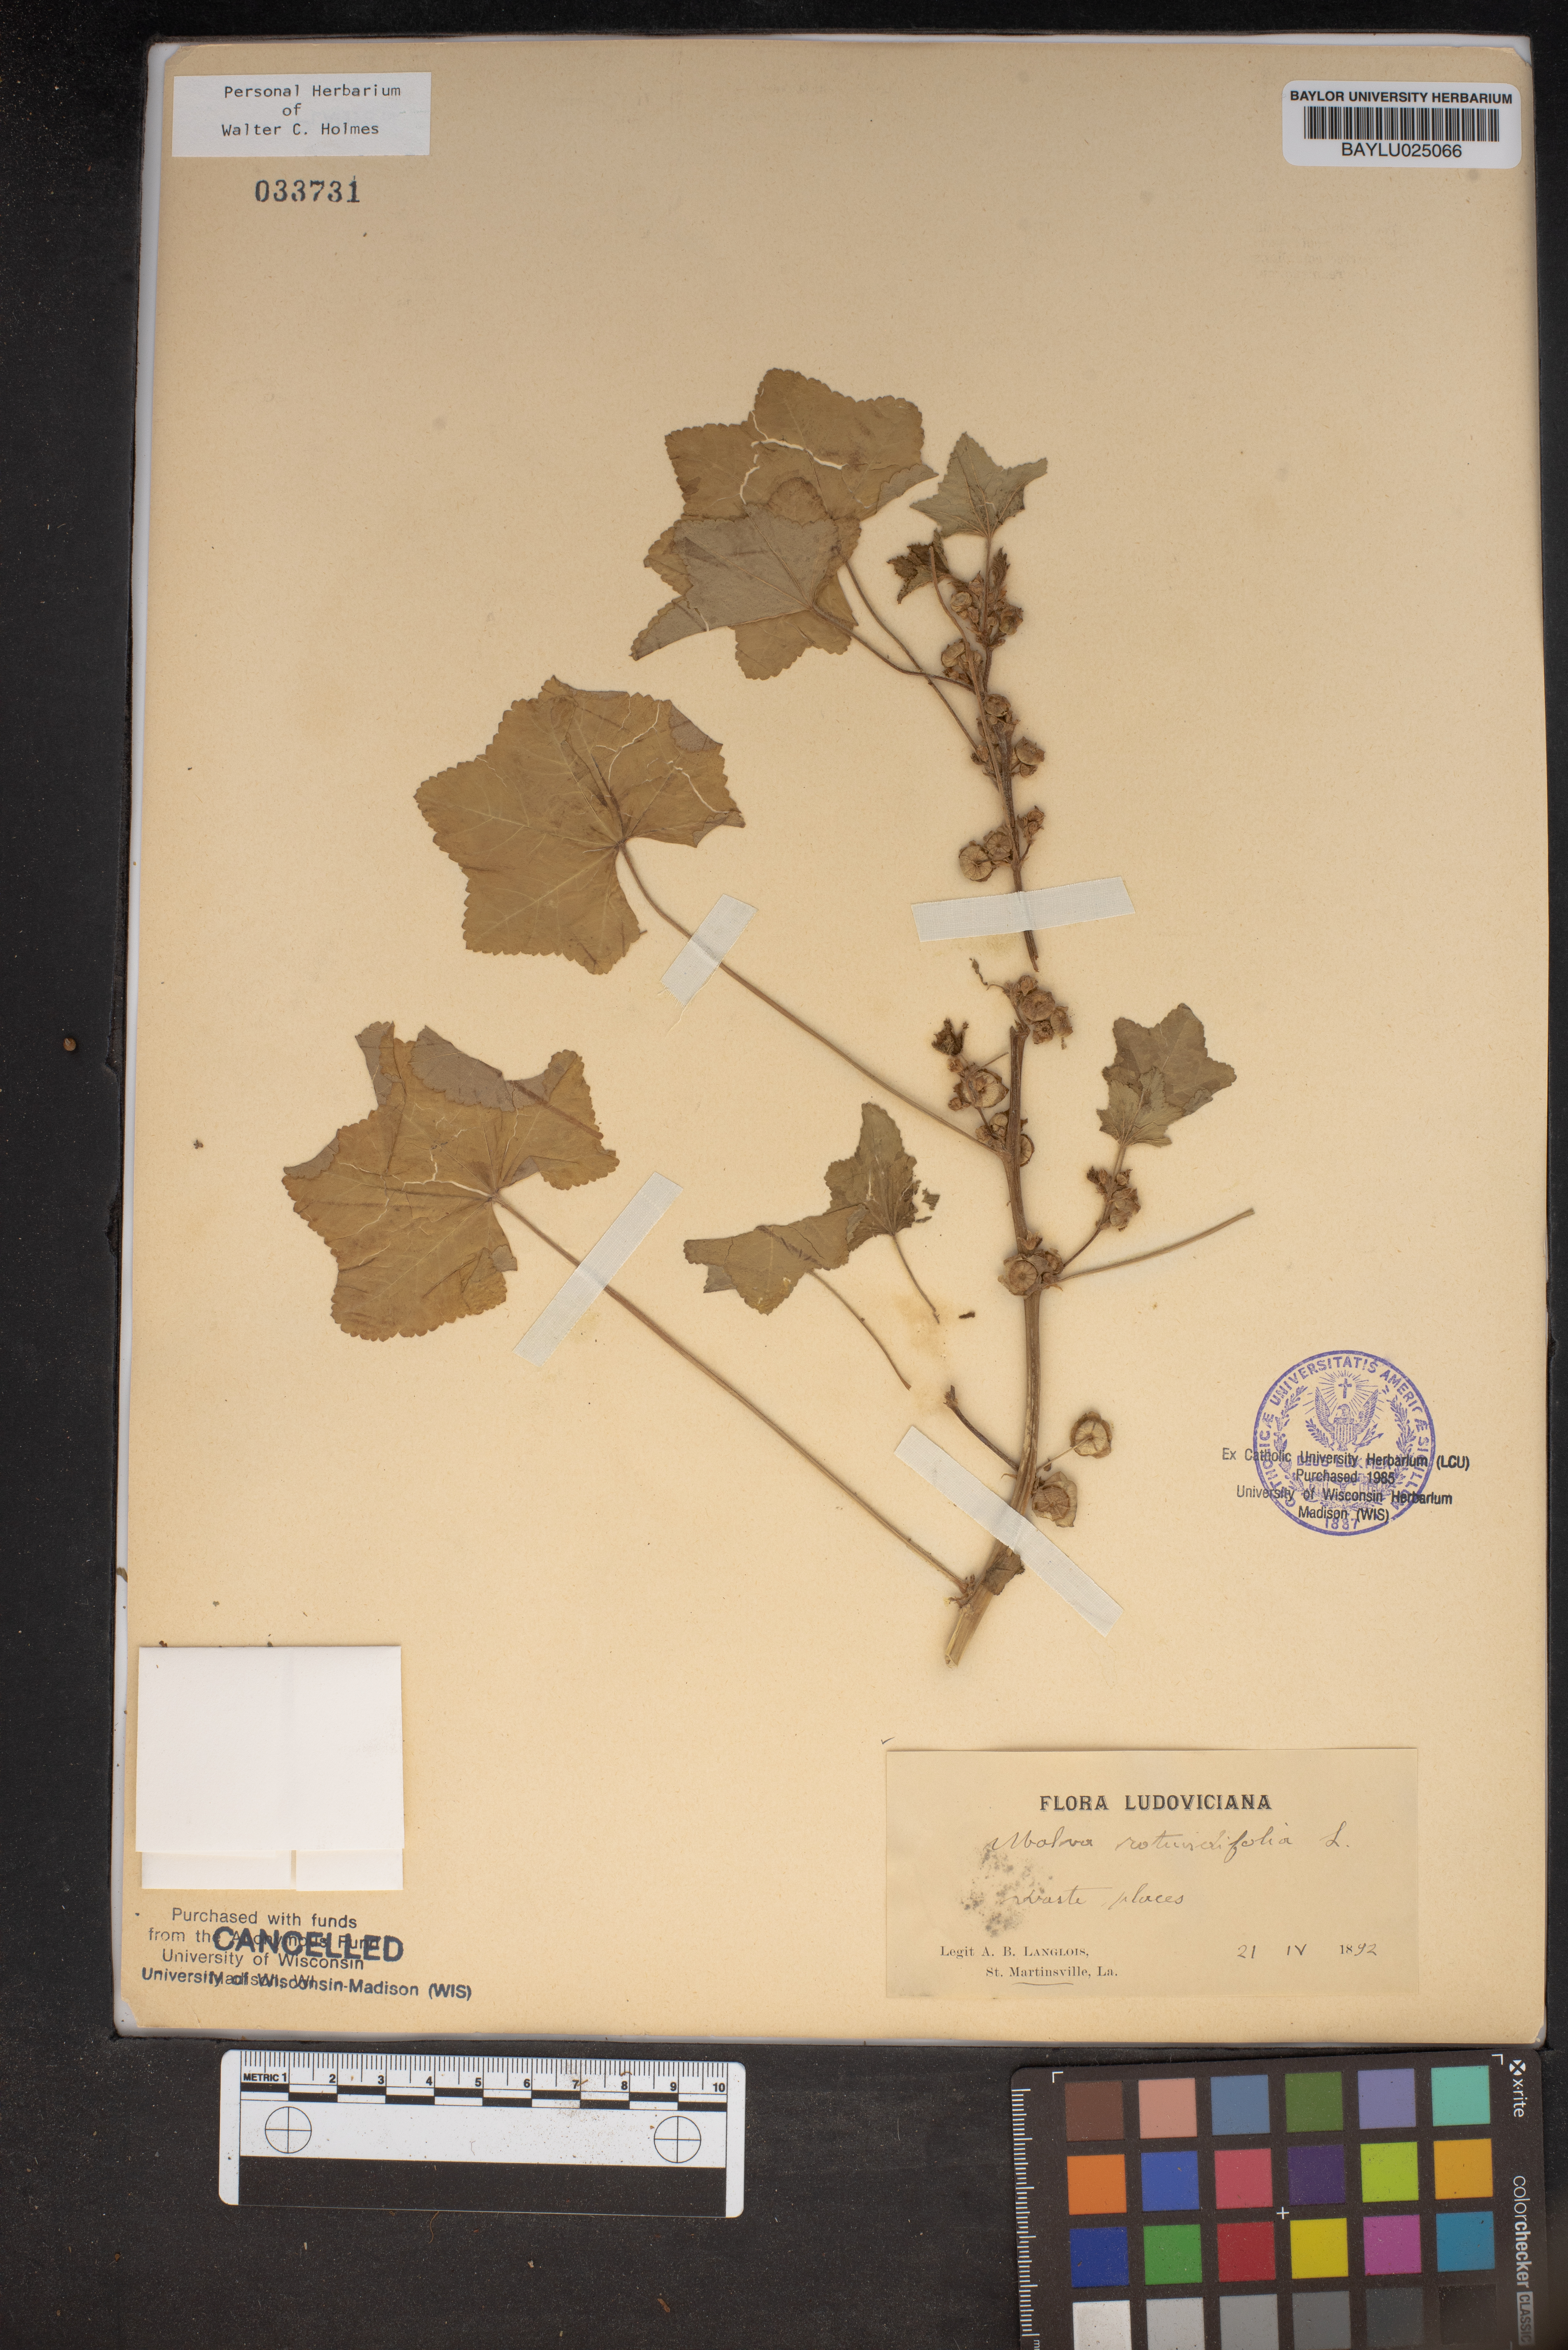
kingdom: Plantae
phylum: Tracheophyta
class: Magnoliopsida
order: Malvales
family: Malvaceae
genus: Malva
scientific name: Malva pusilla
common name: Small mallow
